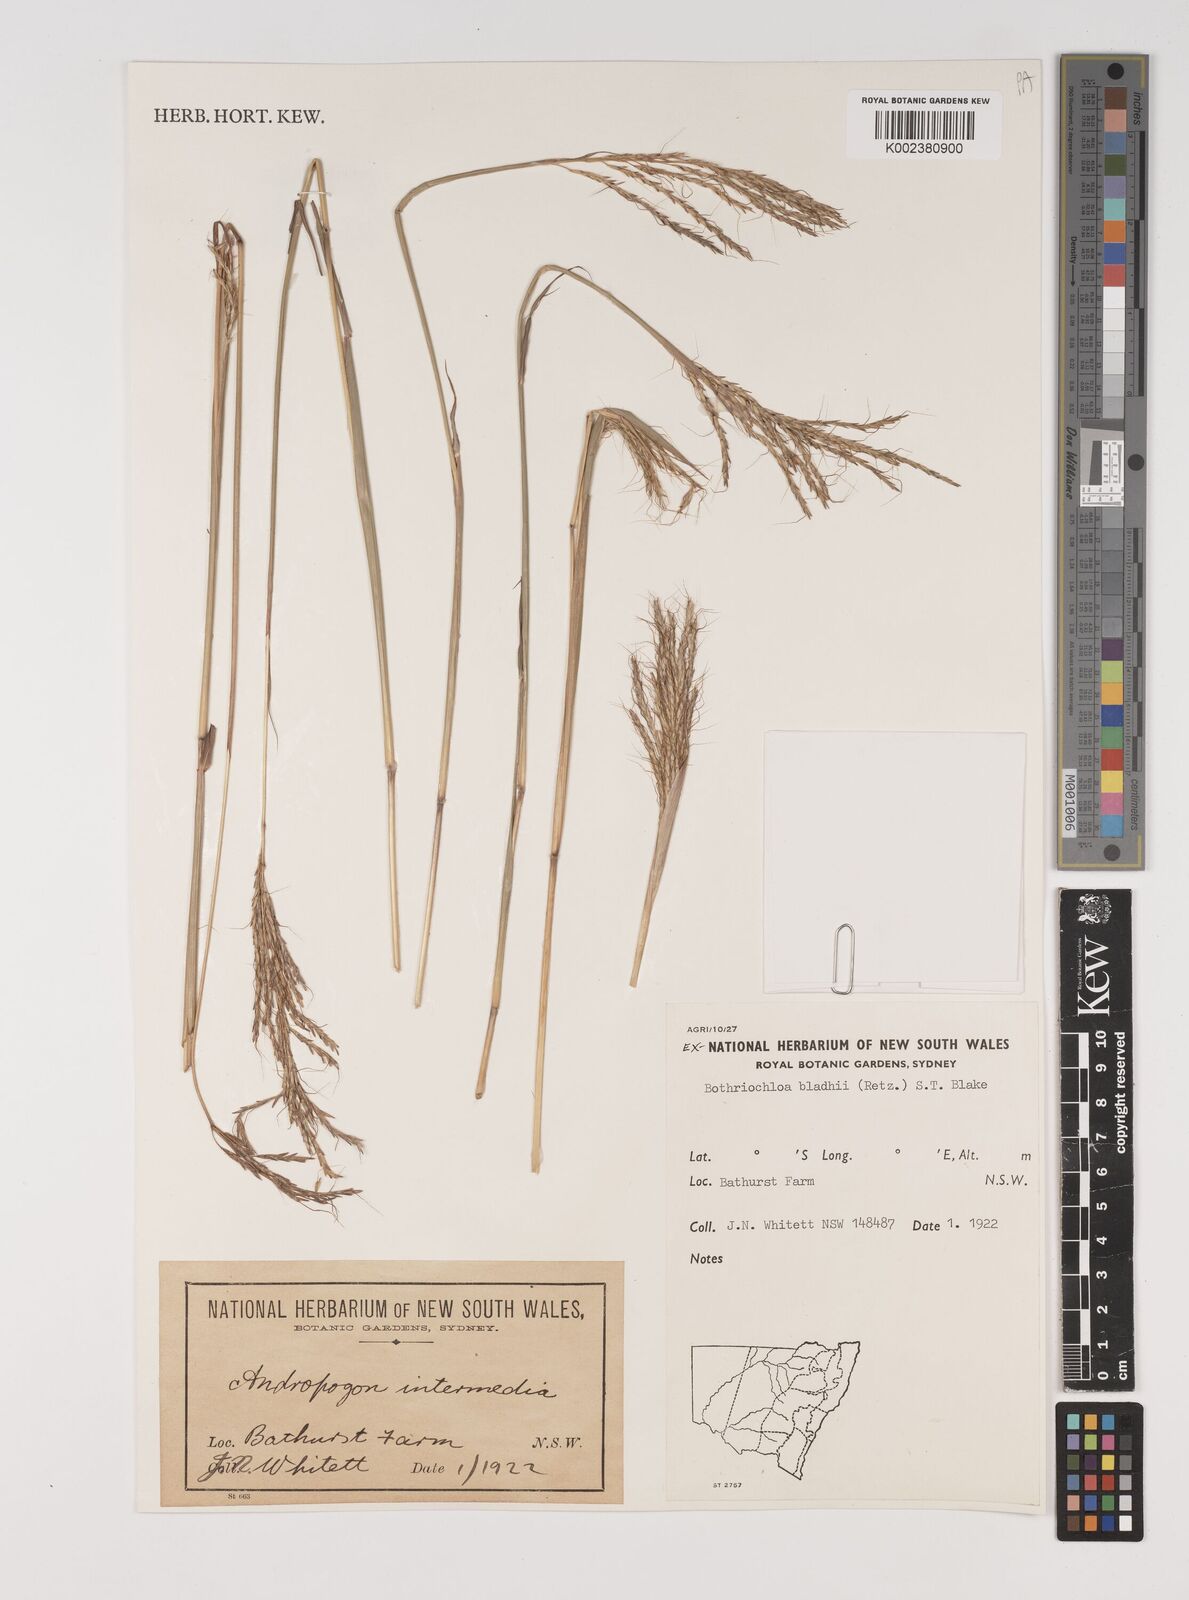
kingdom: Plantae
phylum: Tracheophyta
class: Liliopsida
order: Poales
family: Poaceae
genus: Bothriochloa
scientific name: Bothriochloa bladhii
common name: Caucasian bluestem
